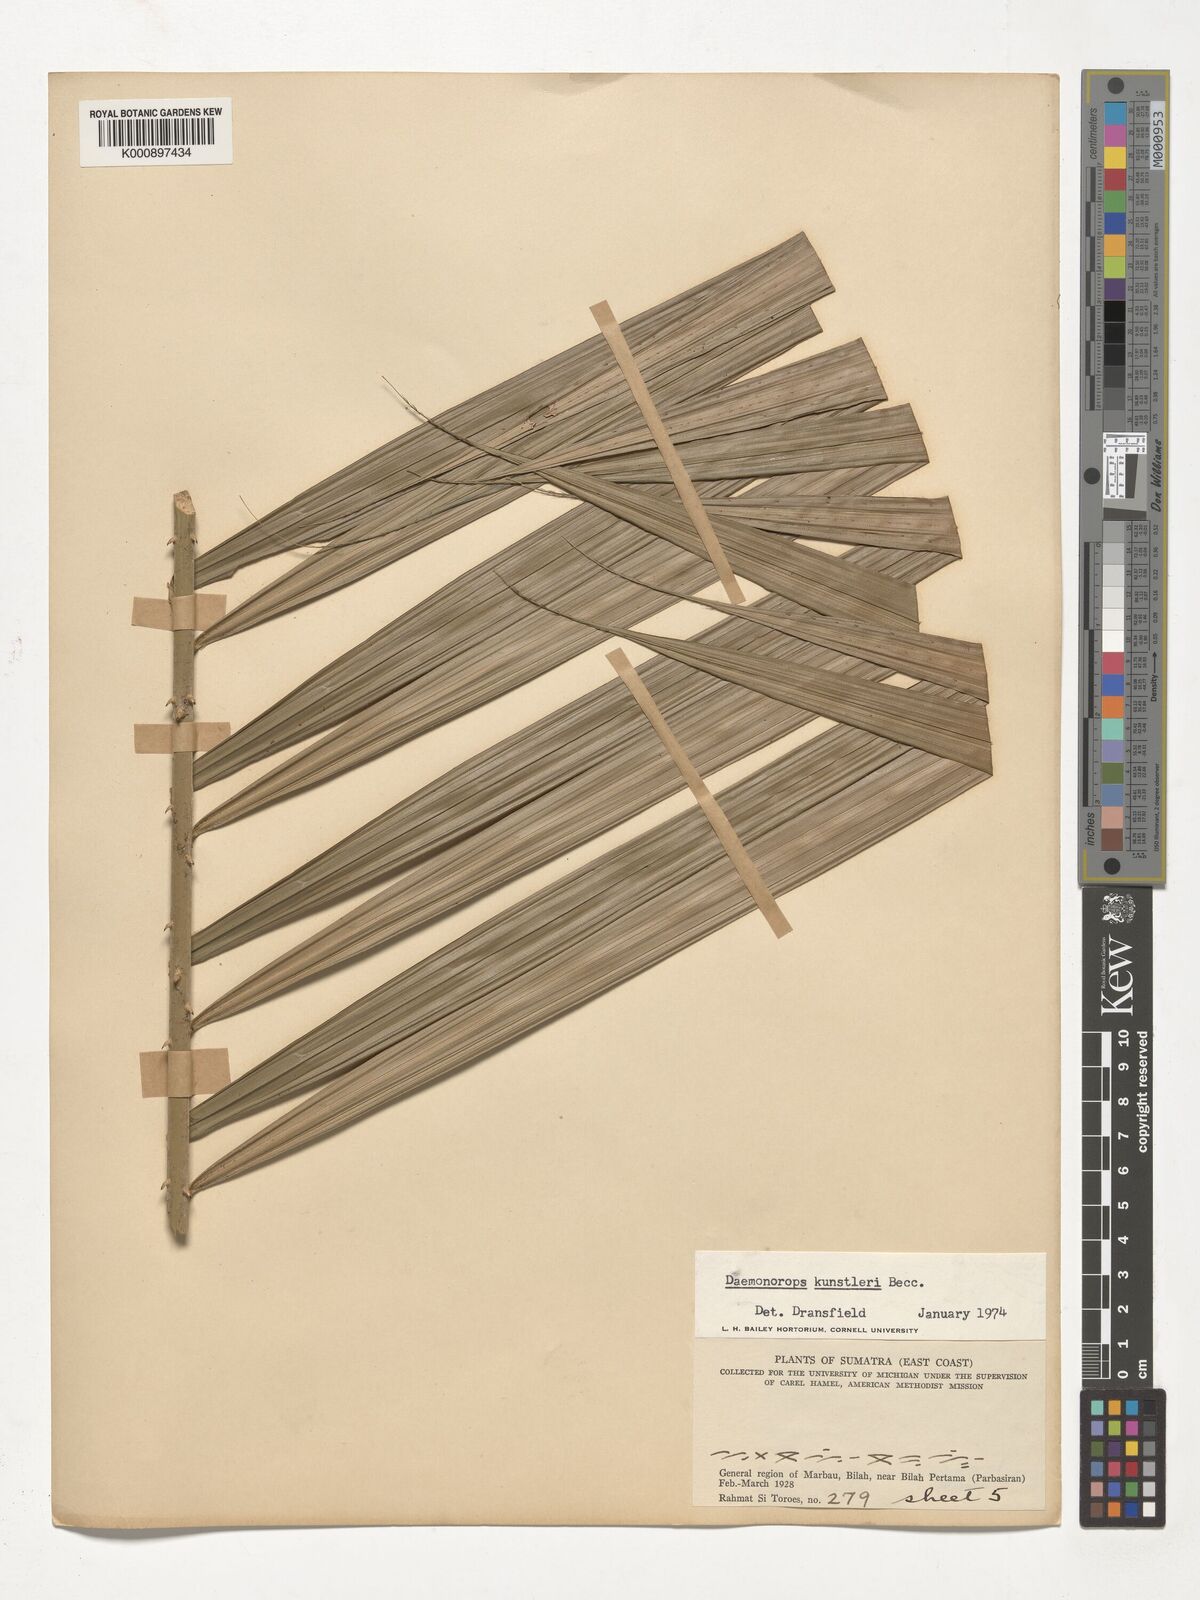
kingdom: Plantae
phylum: Tracheophyta
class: Liliopsida
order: Arecales
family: Arecaceae
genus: Calamus
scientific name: Calamus kunstleri
